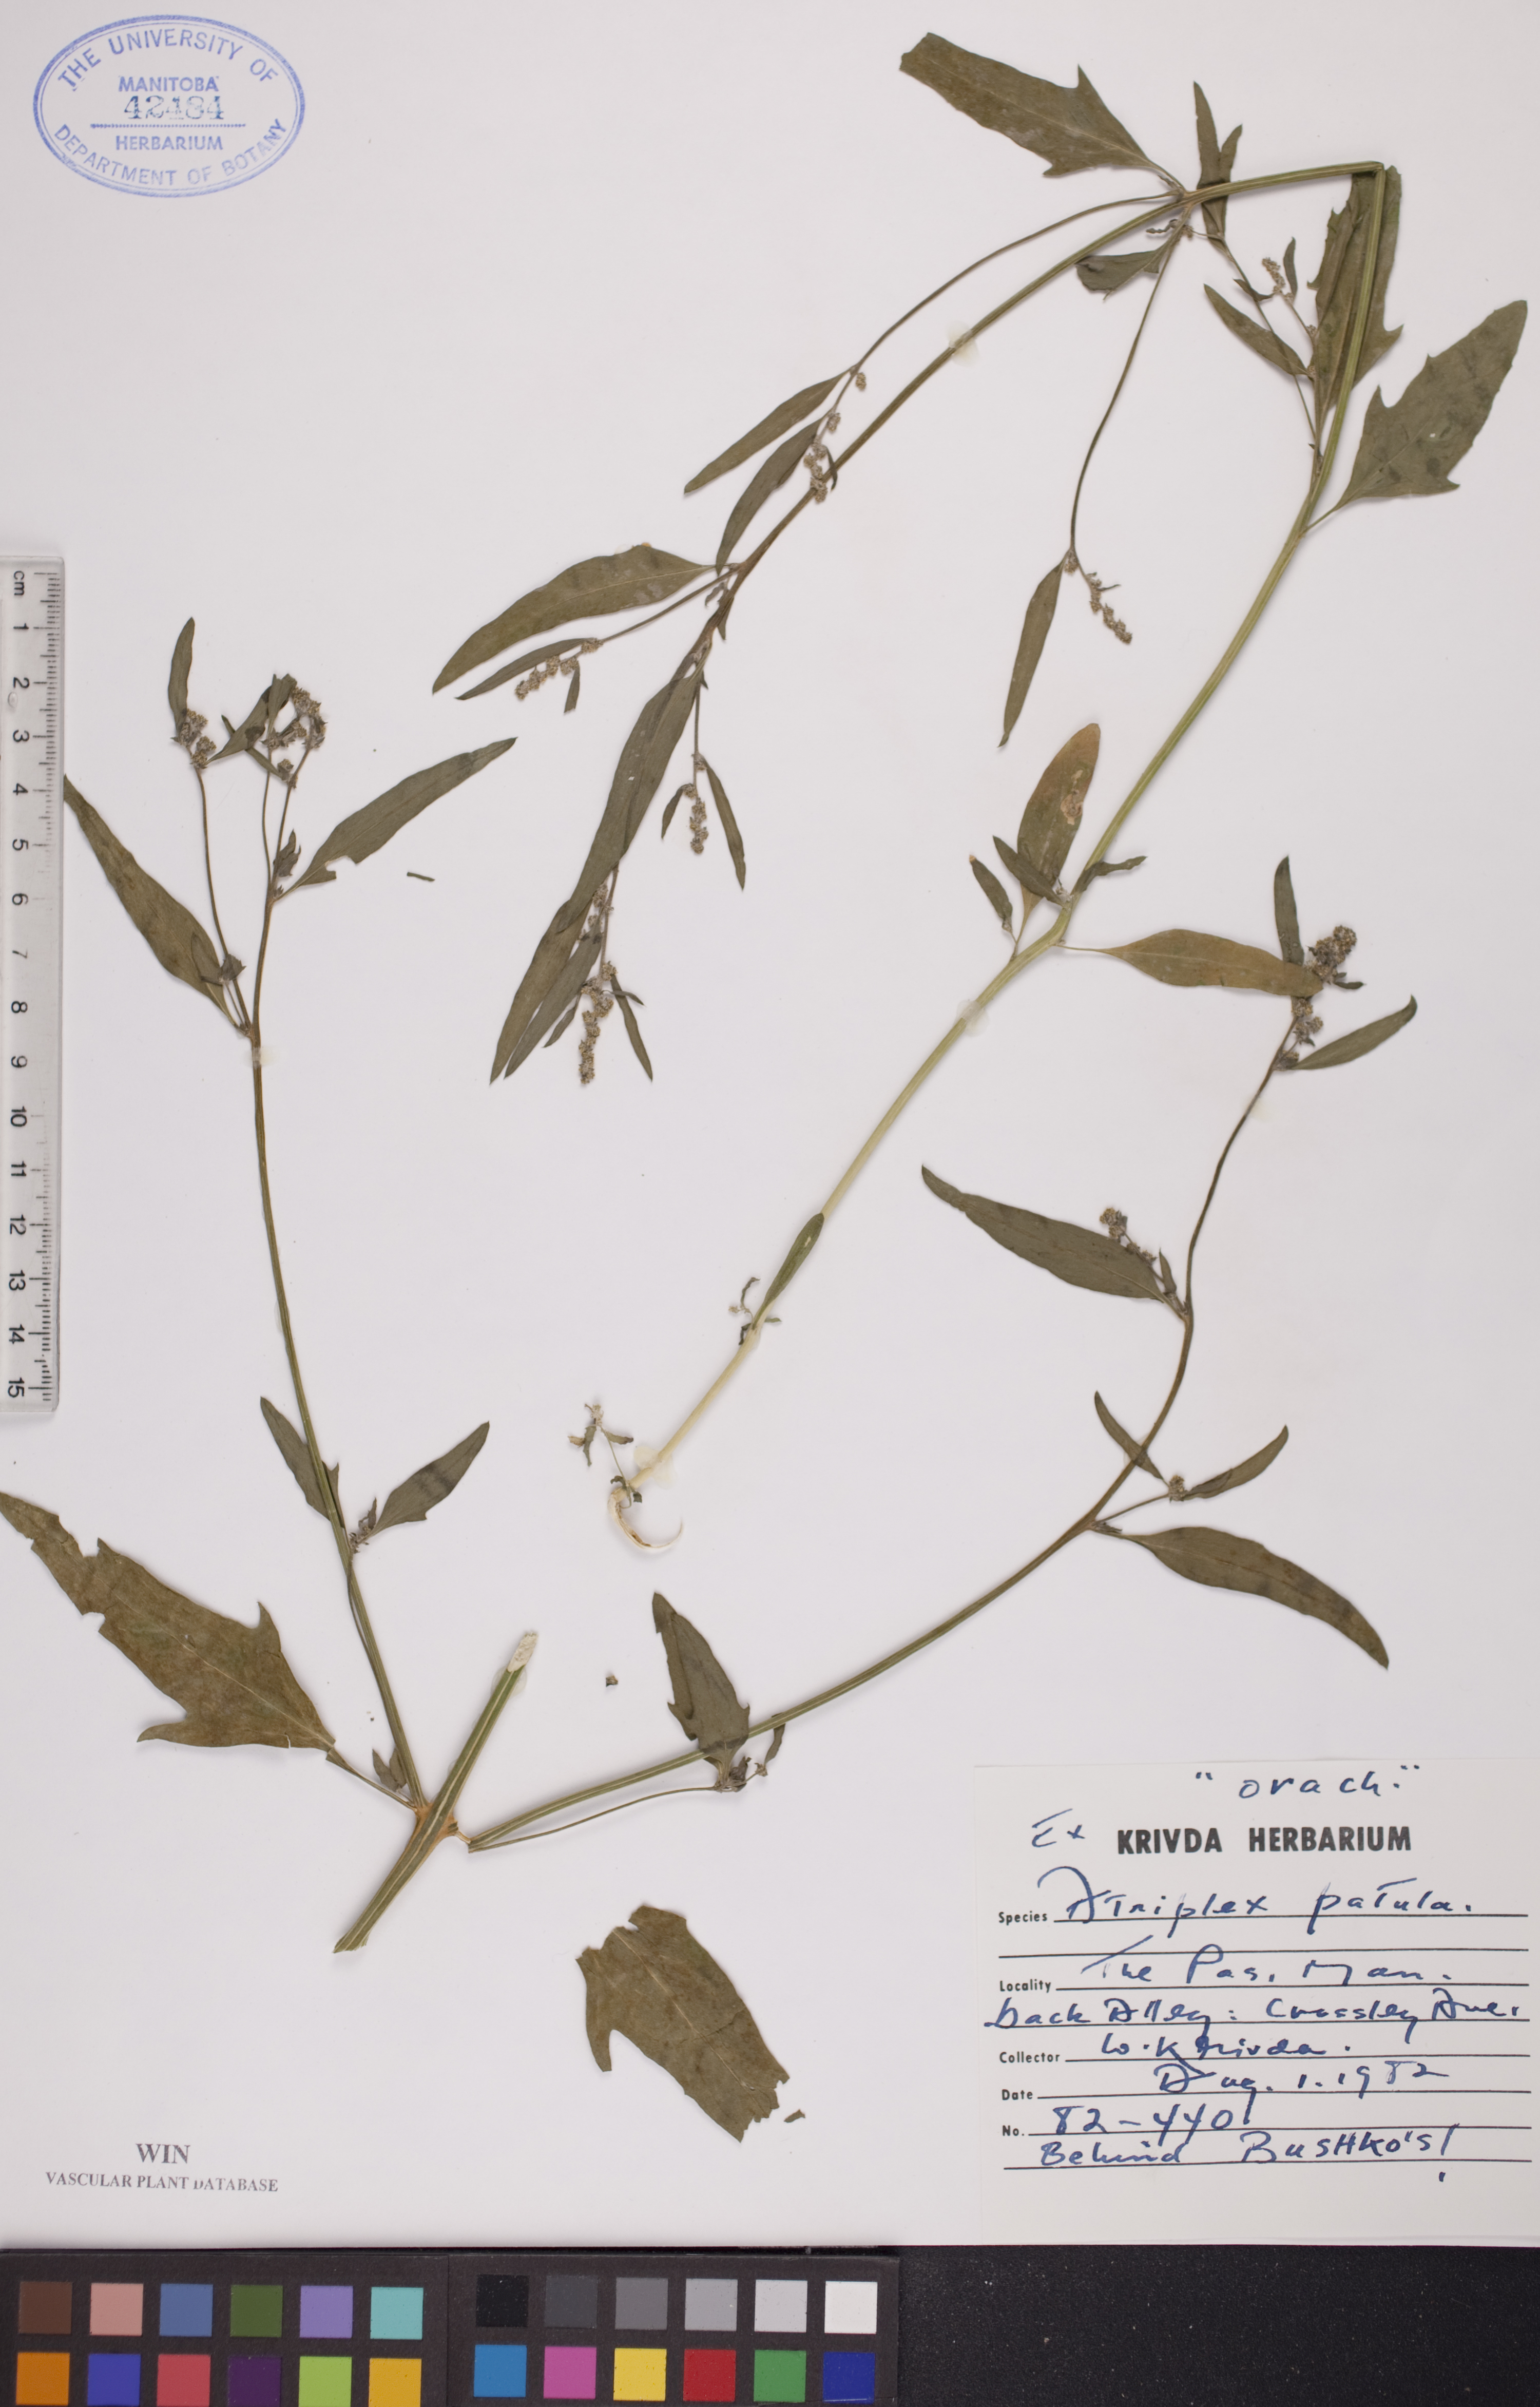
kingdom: Plantae
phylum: Tracheophyta
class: Magnoliopsida
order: Caryophyllales
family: Amaranthaceae
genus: Atriplex
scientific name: Atriplex patula
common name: Common orache
